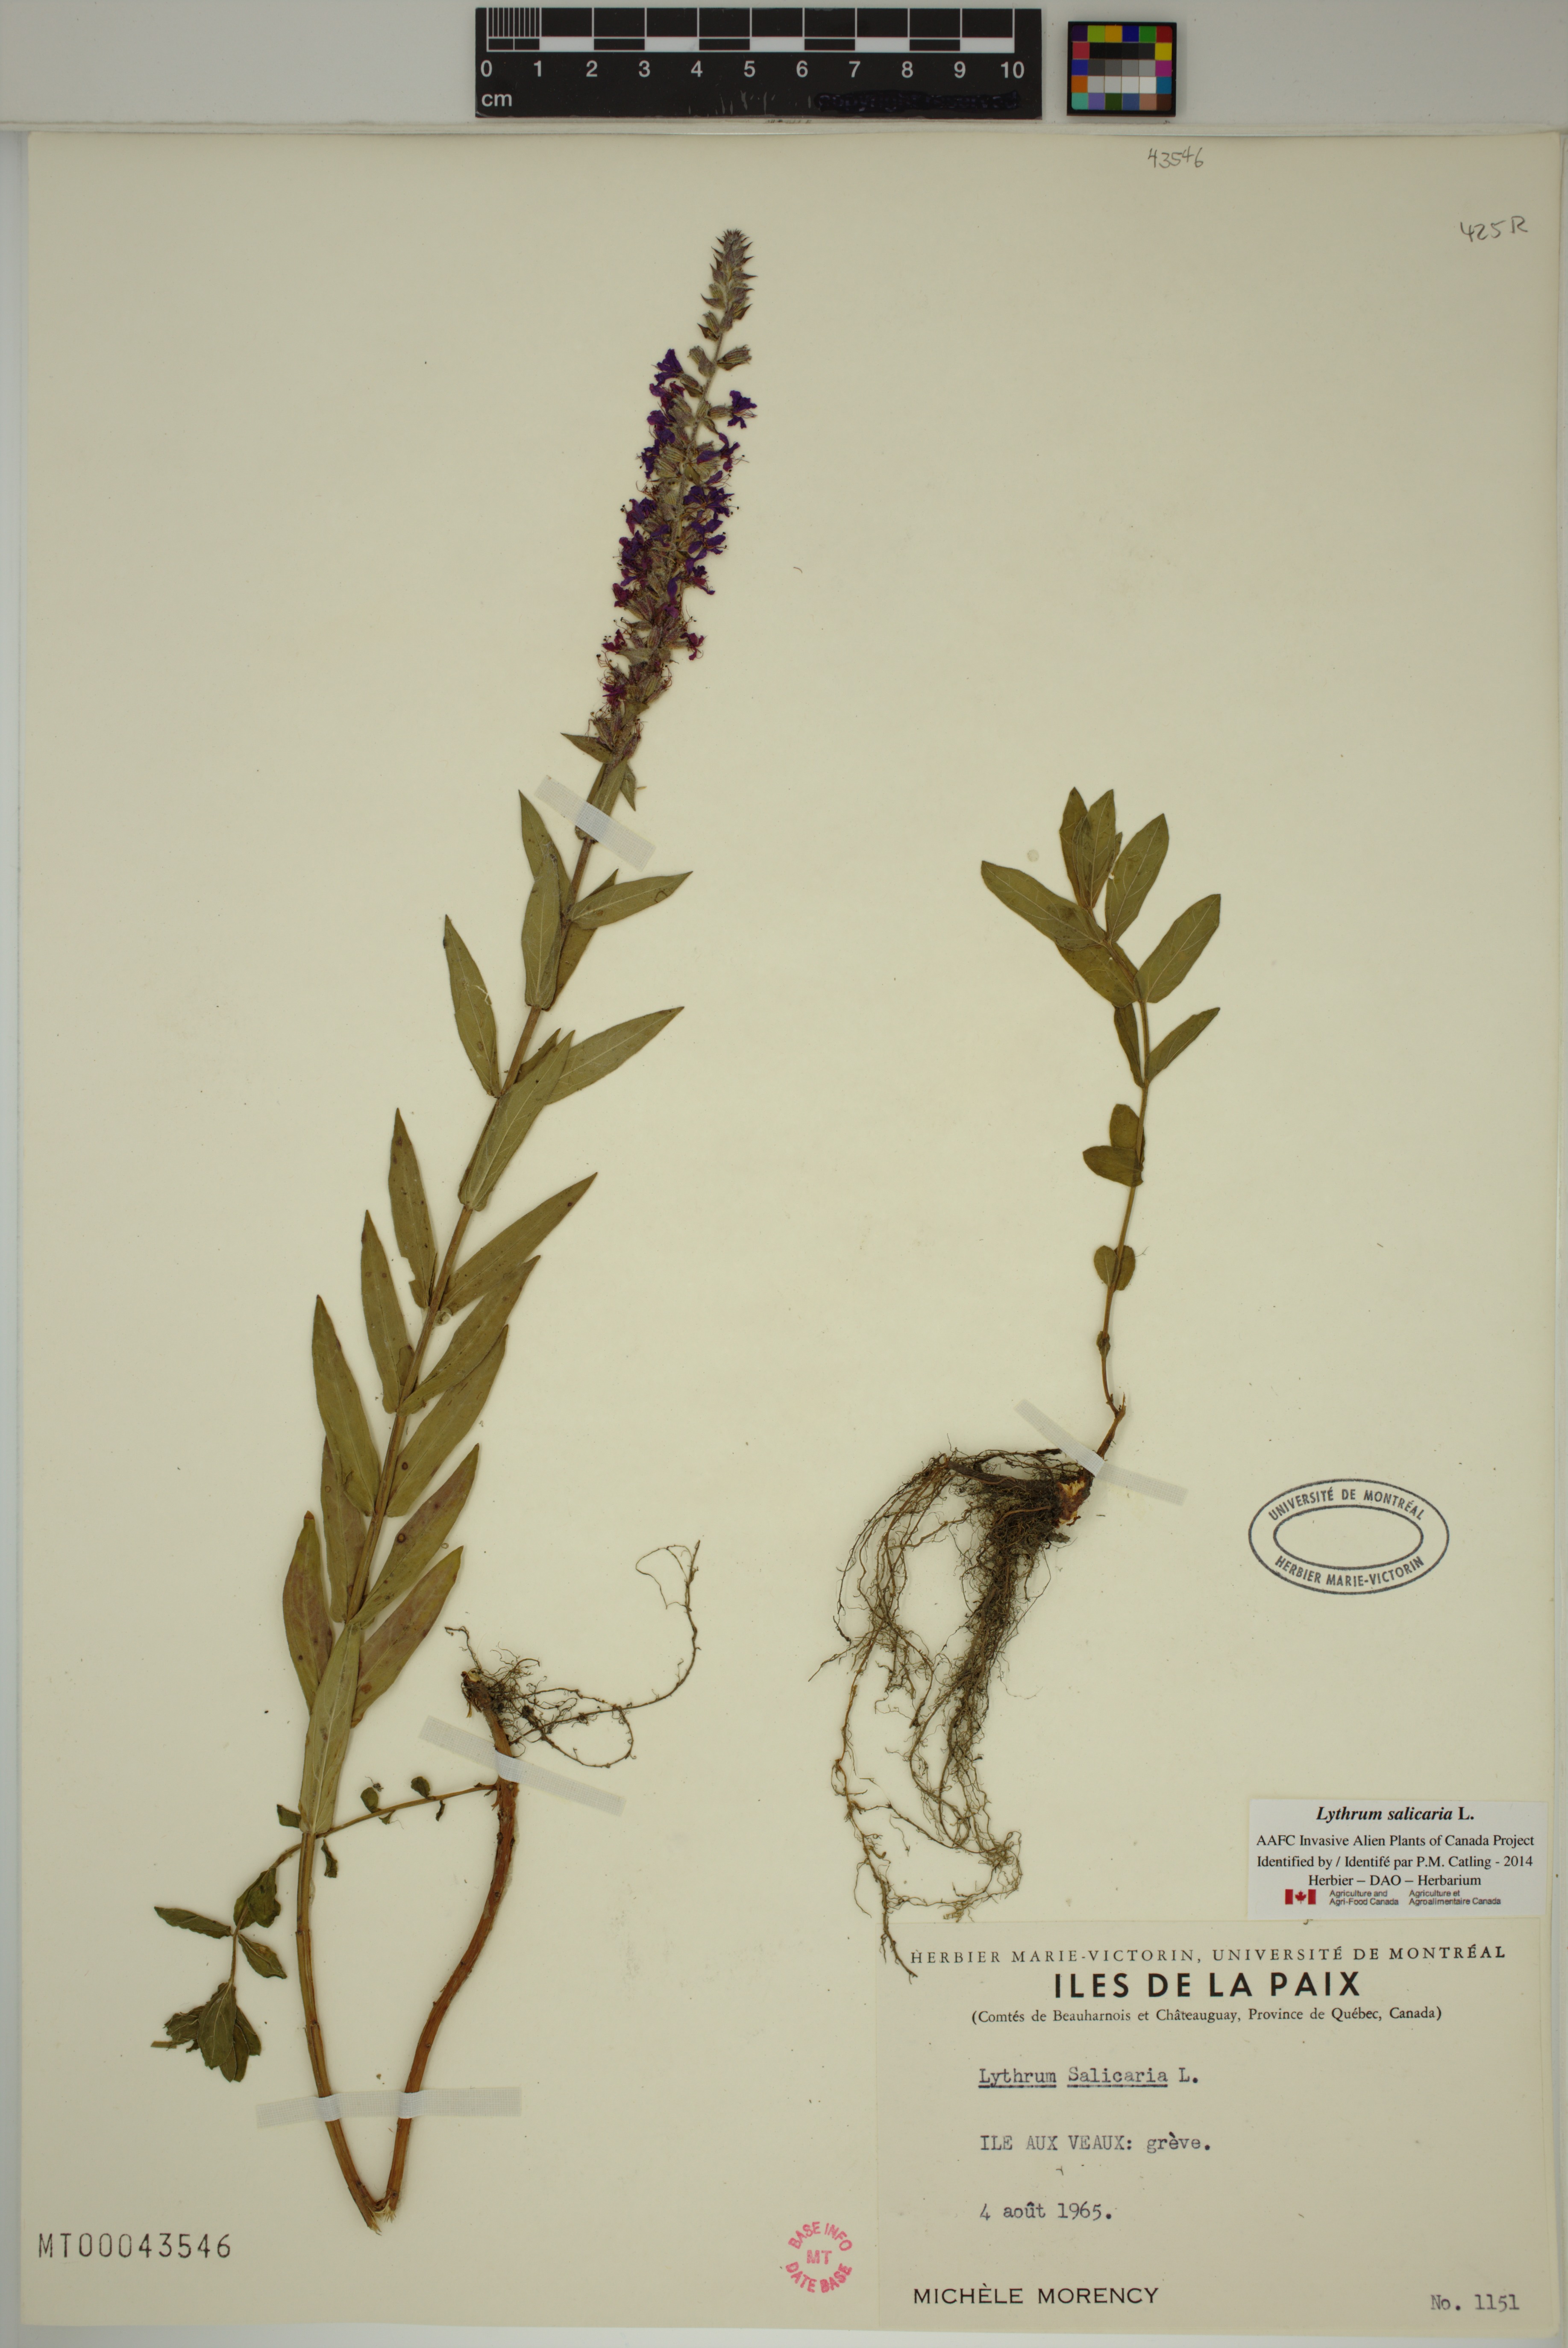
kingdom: Plantae
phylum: Tracheophyta
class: Magnoliopsida
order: Myrtales
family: Lythraceae
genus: Lythrum
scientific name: Lythrum salicaria
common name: Purple loosestrife
